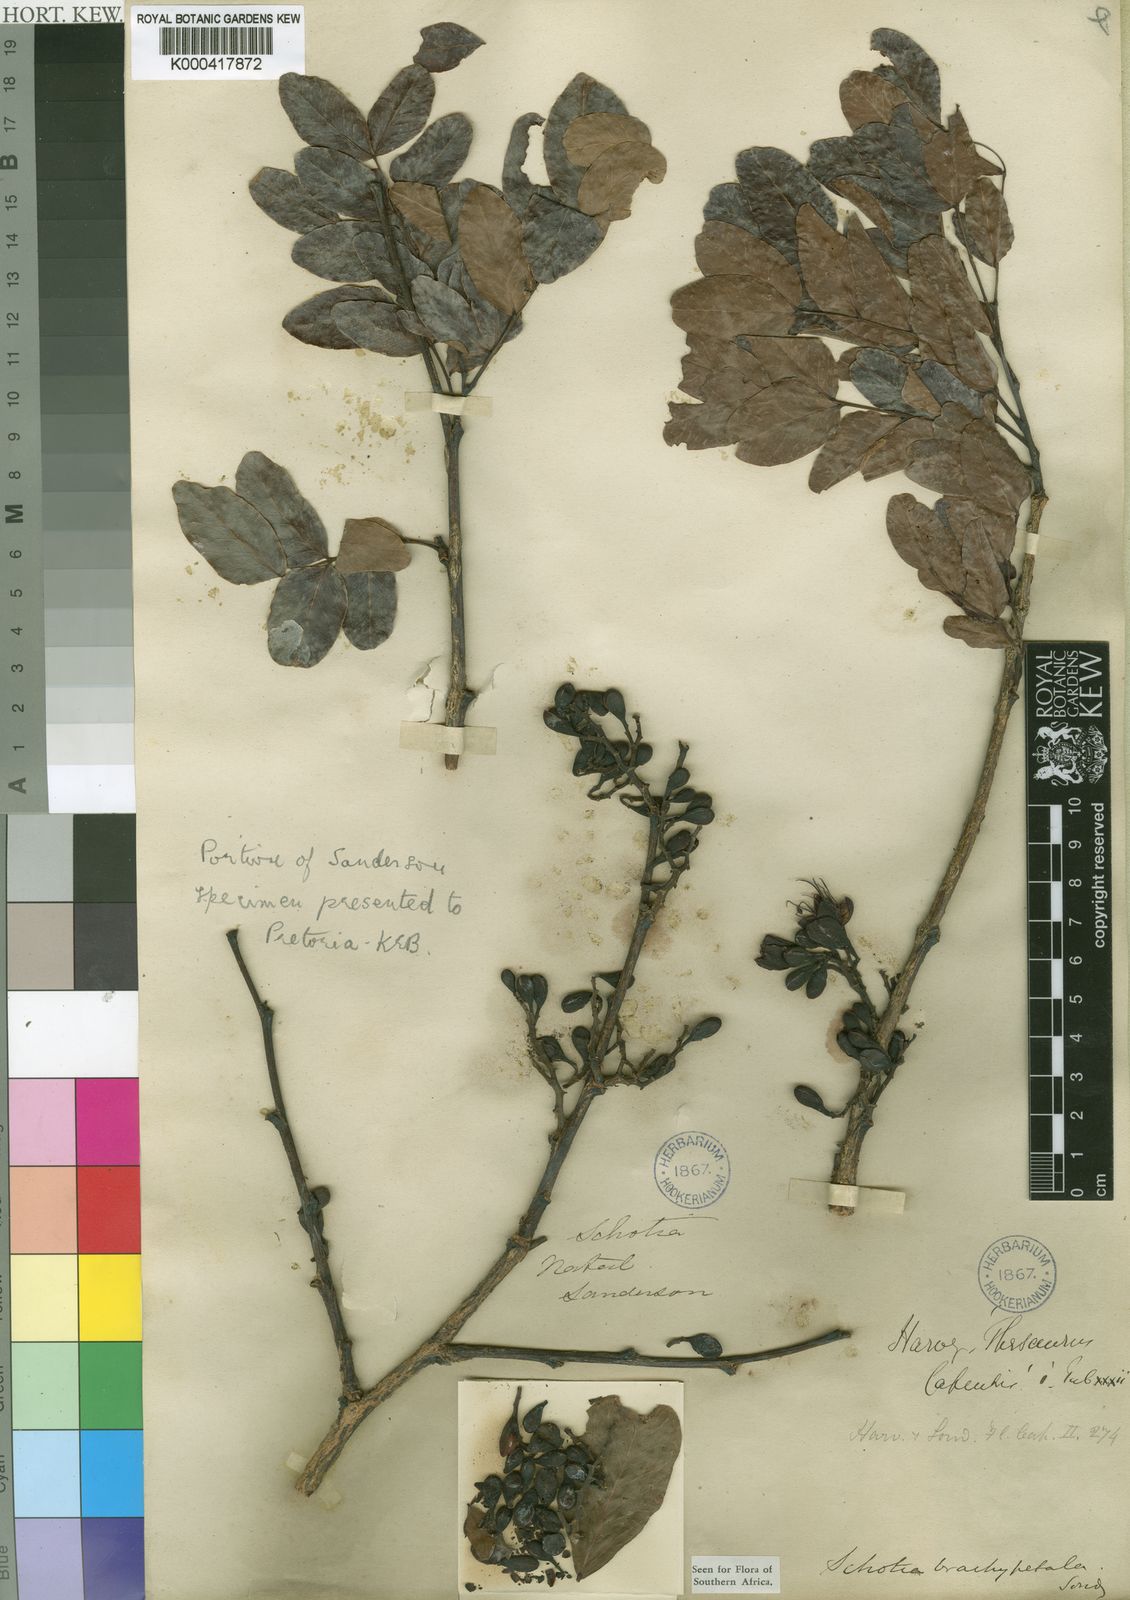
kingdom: Plantae
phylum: Tracheophyta
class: Magnoliopsida
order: Fabales
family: Fabaceae
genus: Schotia
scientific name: Schotia brachypetala
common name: Weeping boer-bean
